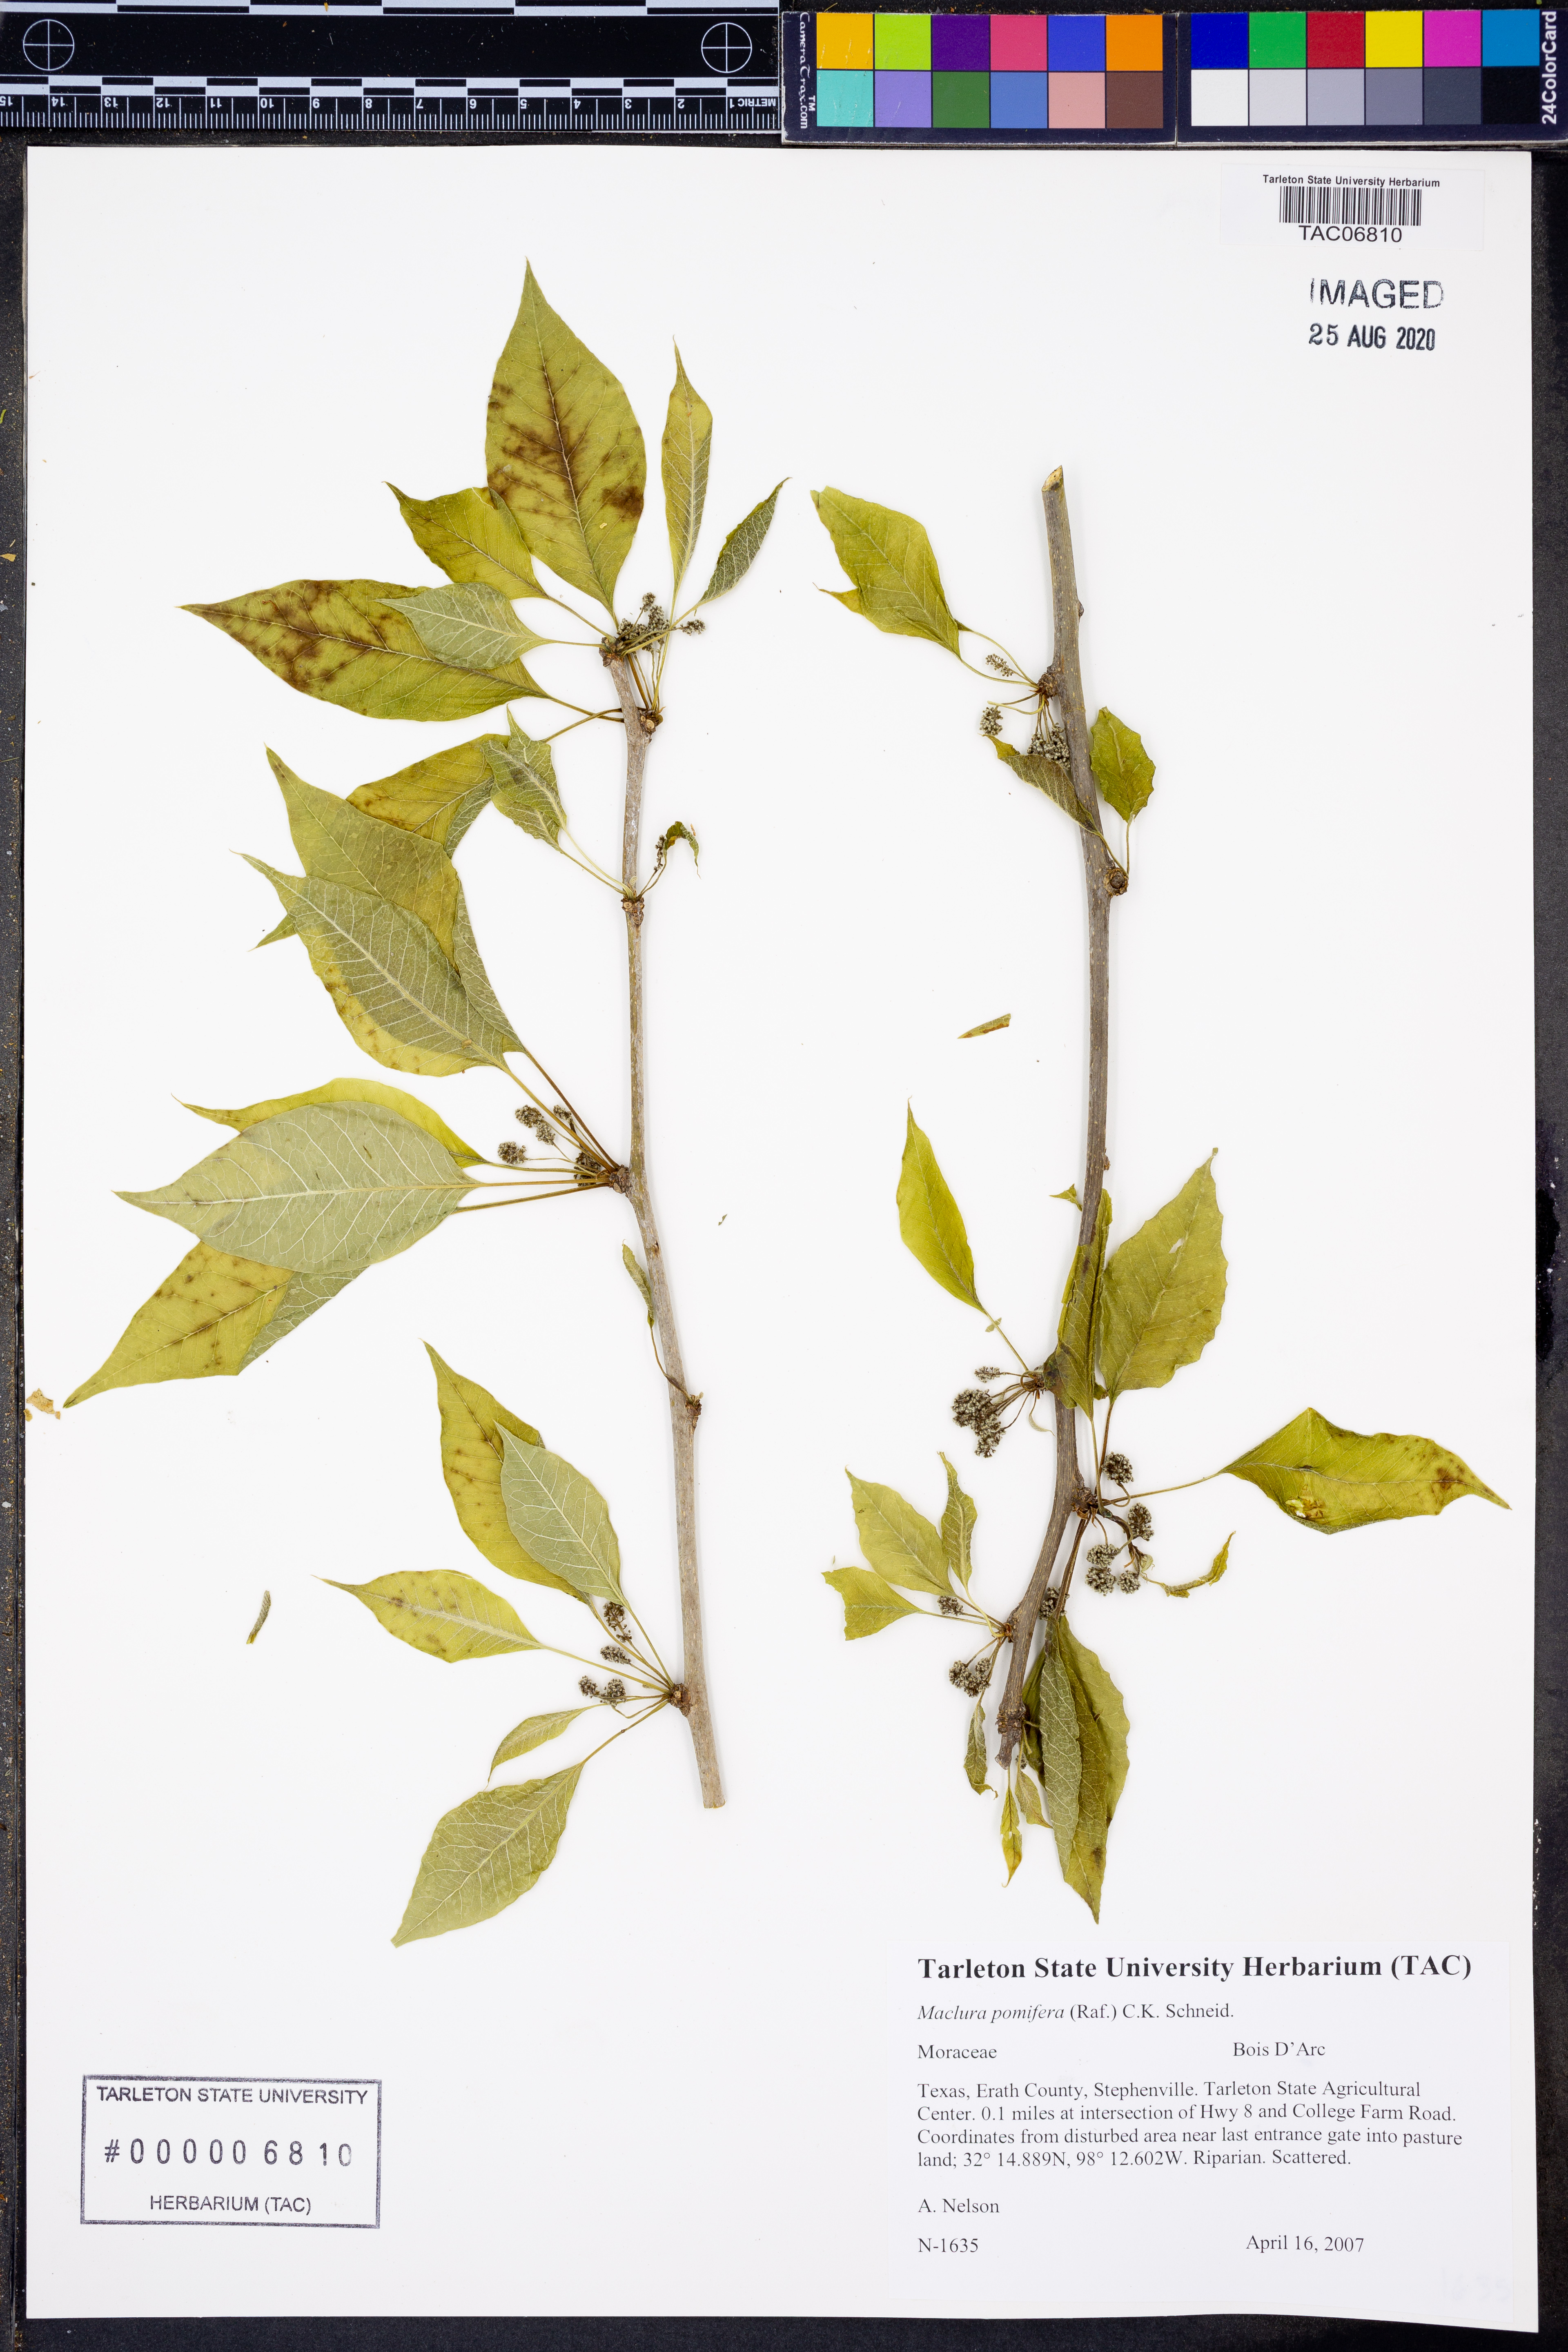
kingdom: Plantae
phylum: Tracheophyta
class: Magnoliopsida
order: Rosales
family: Moraceae
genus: Maclura
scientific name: Maclura pomifera
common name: Osage-orange
